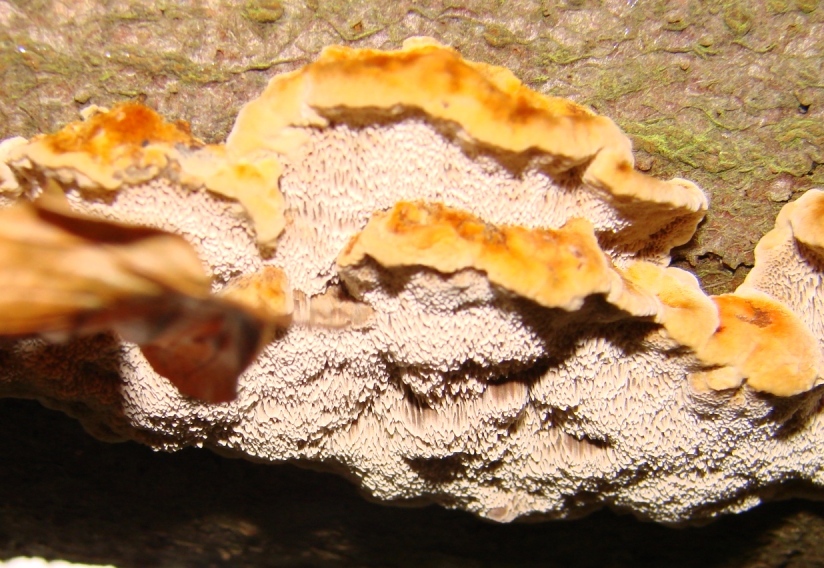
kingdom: Fungi
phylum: Basidiomycota
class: Agaricomycetes
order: Hymenochaetales
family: Hymenochaetaceae
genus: Mensularia
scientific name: Mensularia nodulosa
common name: bøge-spejlporesvamp
